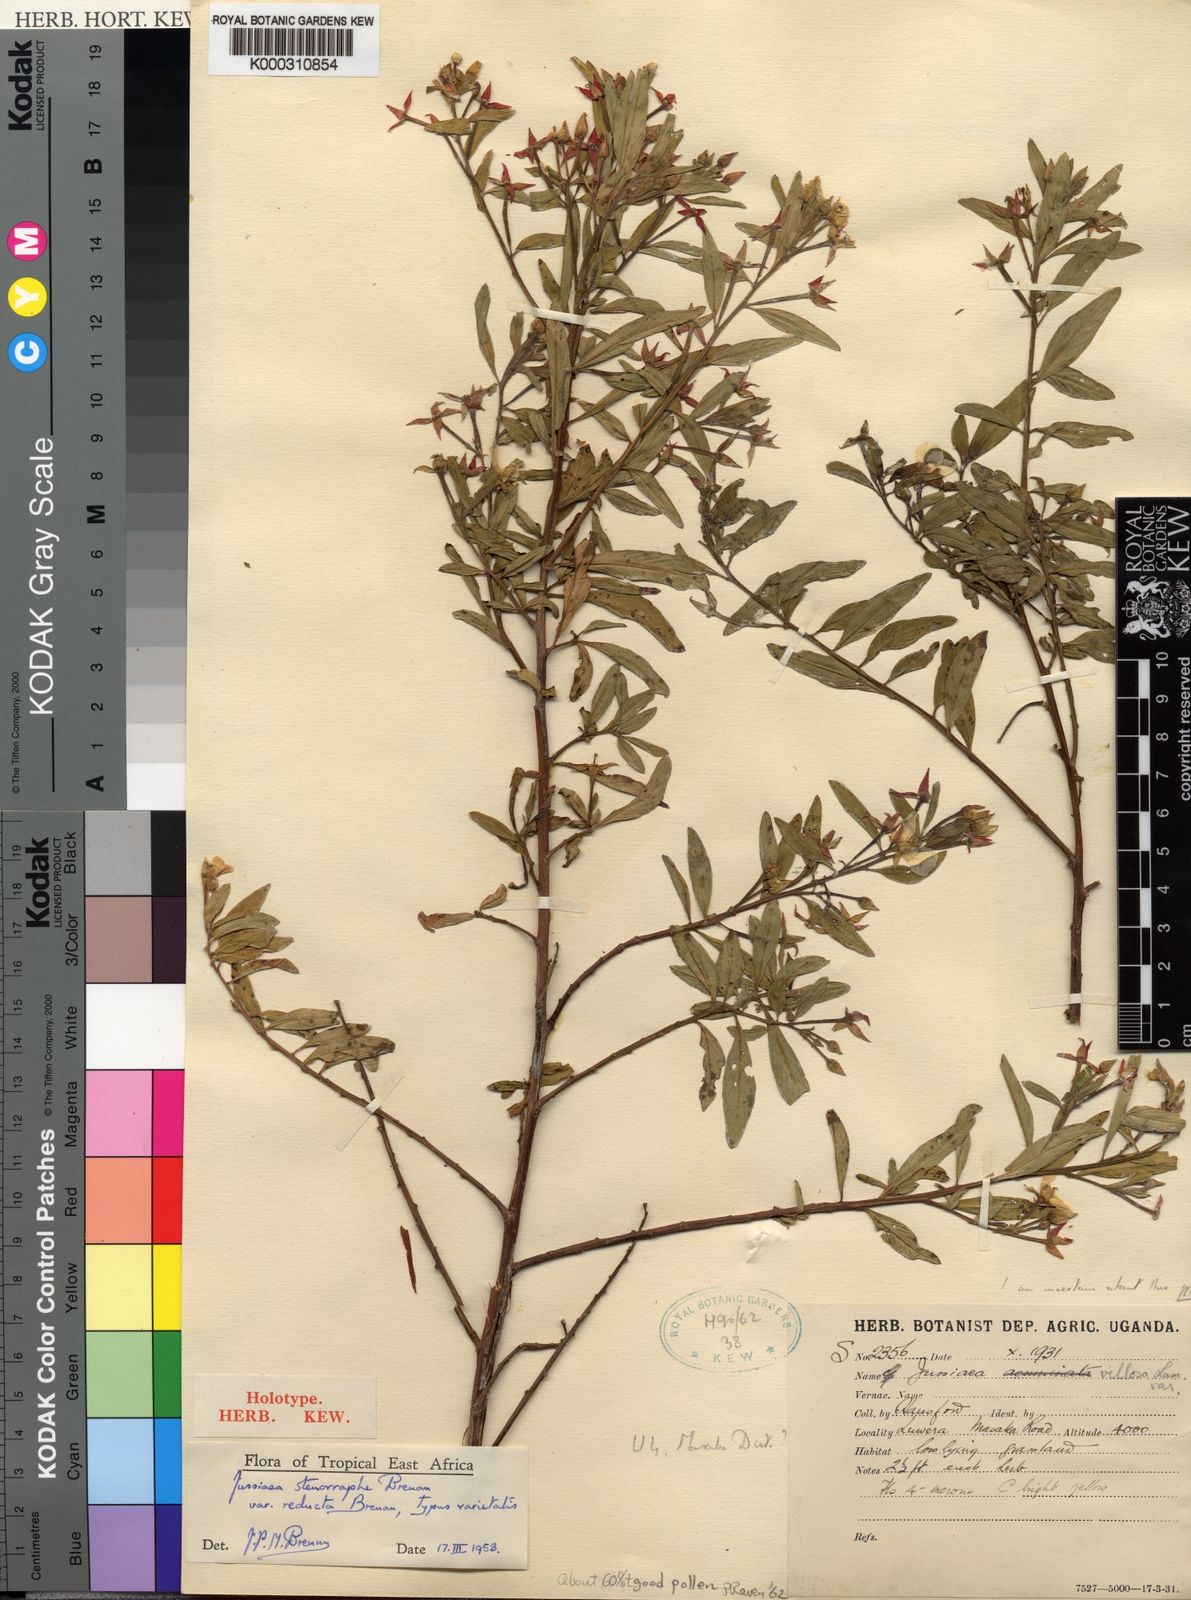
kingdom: Plantae
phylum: Tracheophyta
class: Magnoliopsida
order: Myrtales
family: Onagraceae
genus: Ludwigia
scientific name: Ludwigia
